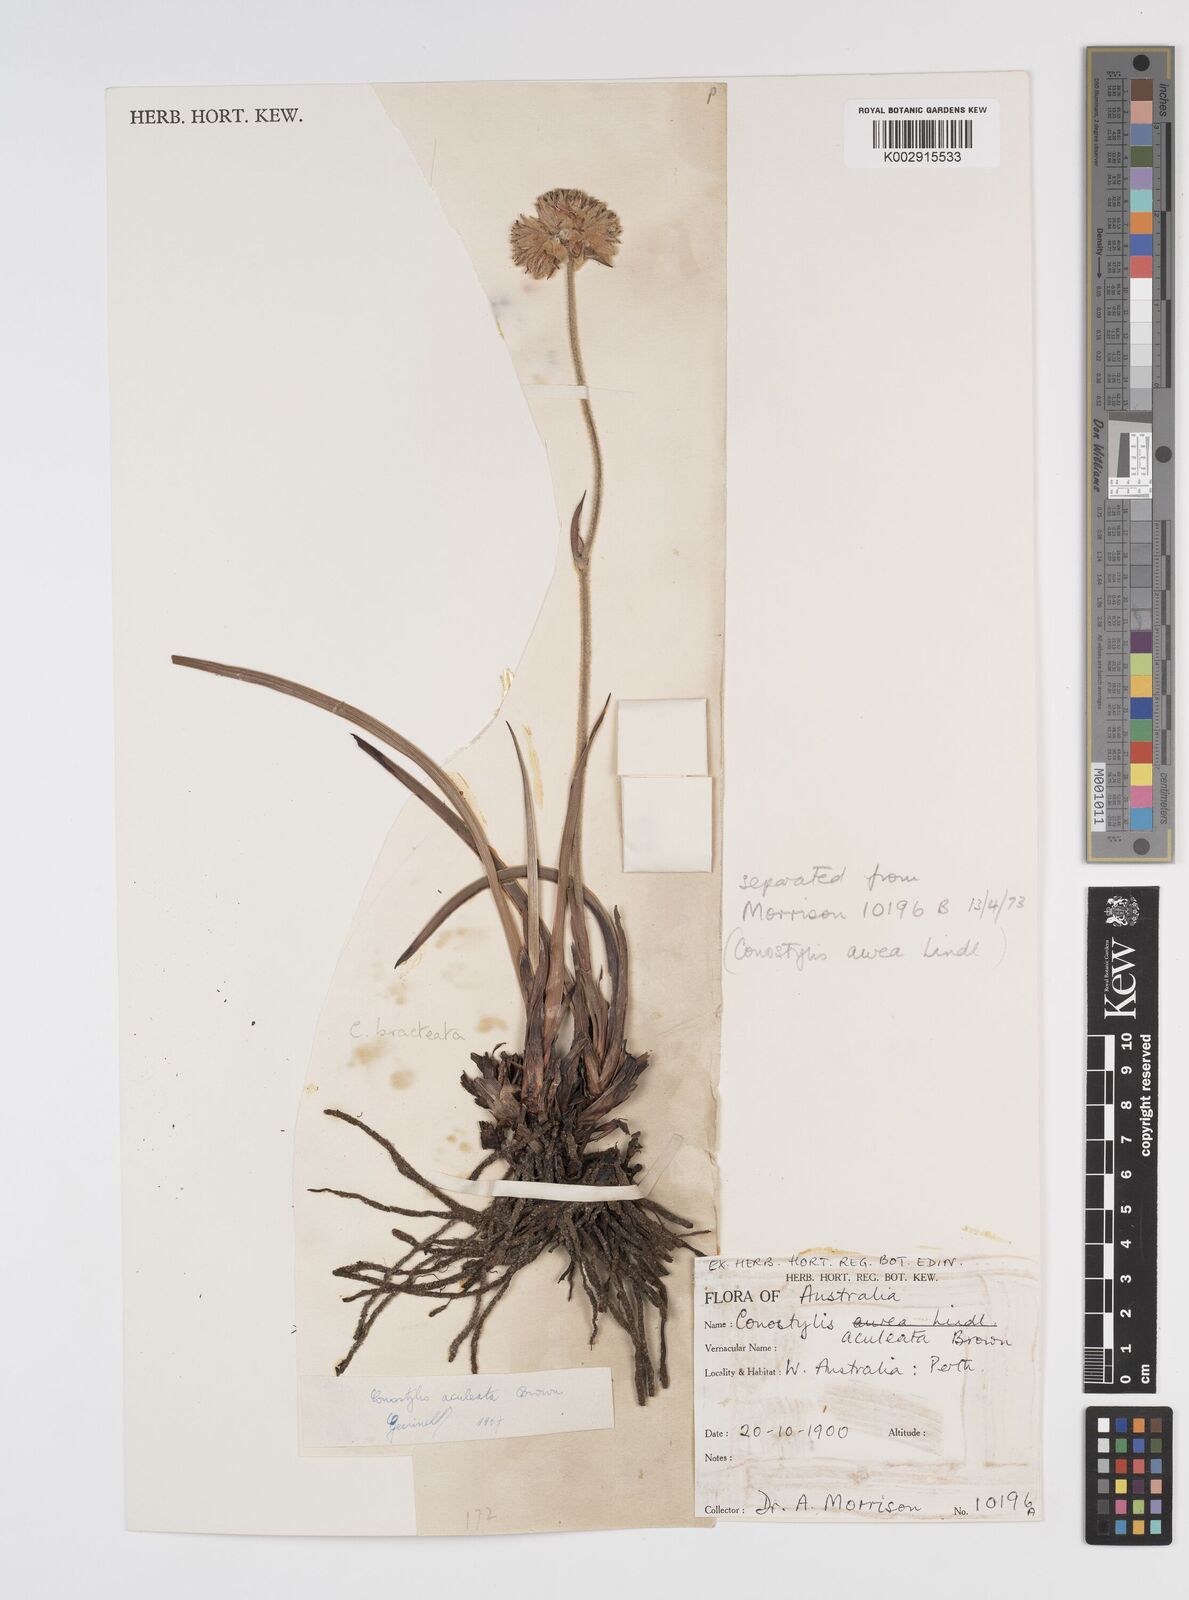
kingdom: Plantae
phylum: Tracheophyta
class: Liliopsida
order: Commelinales
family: Haemodoraceae
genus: Conostylis
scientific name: Conostylis aculeata
